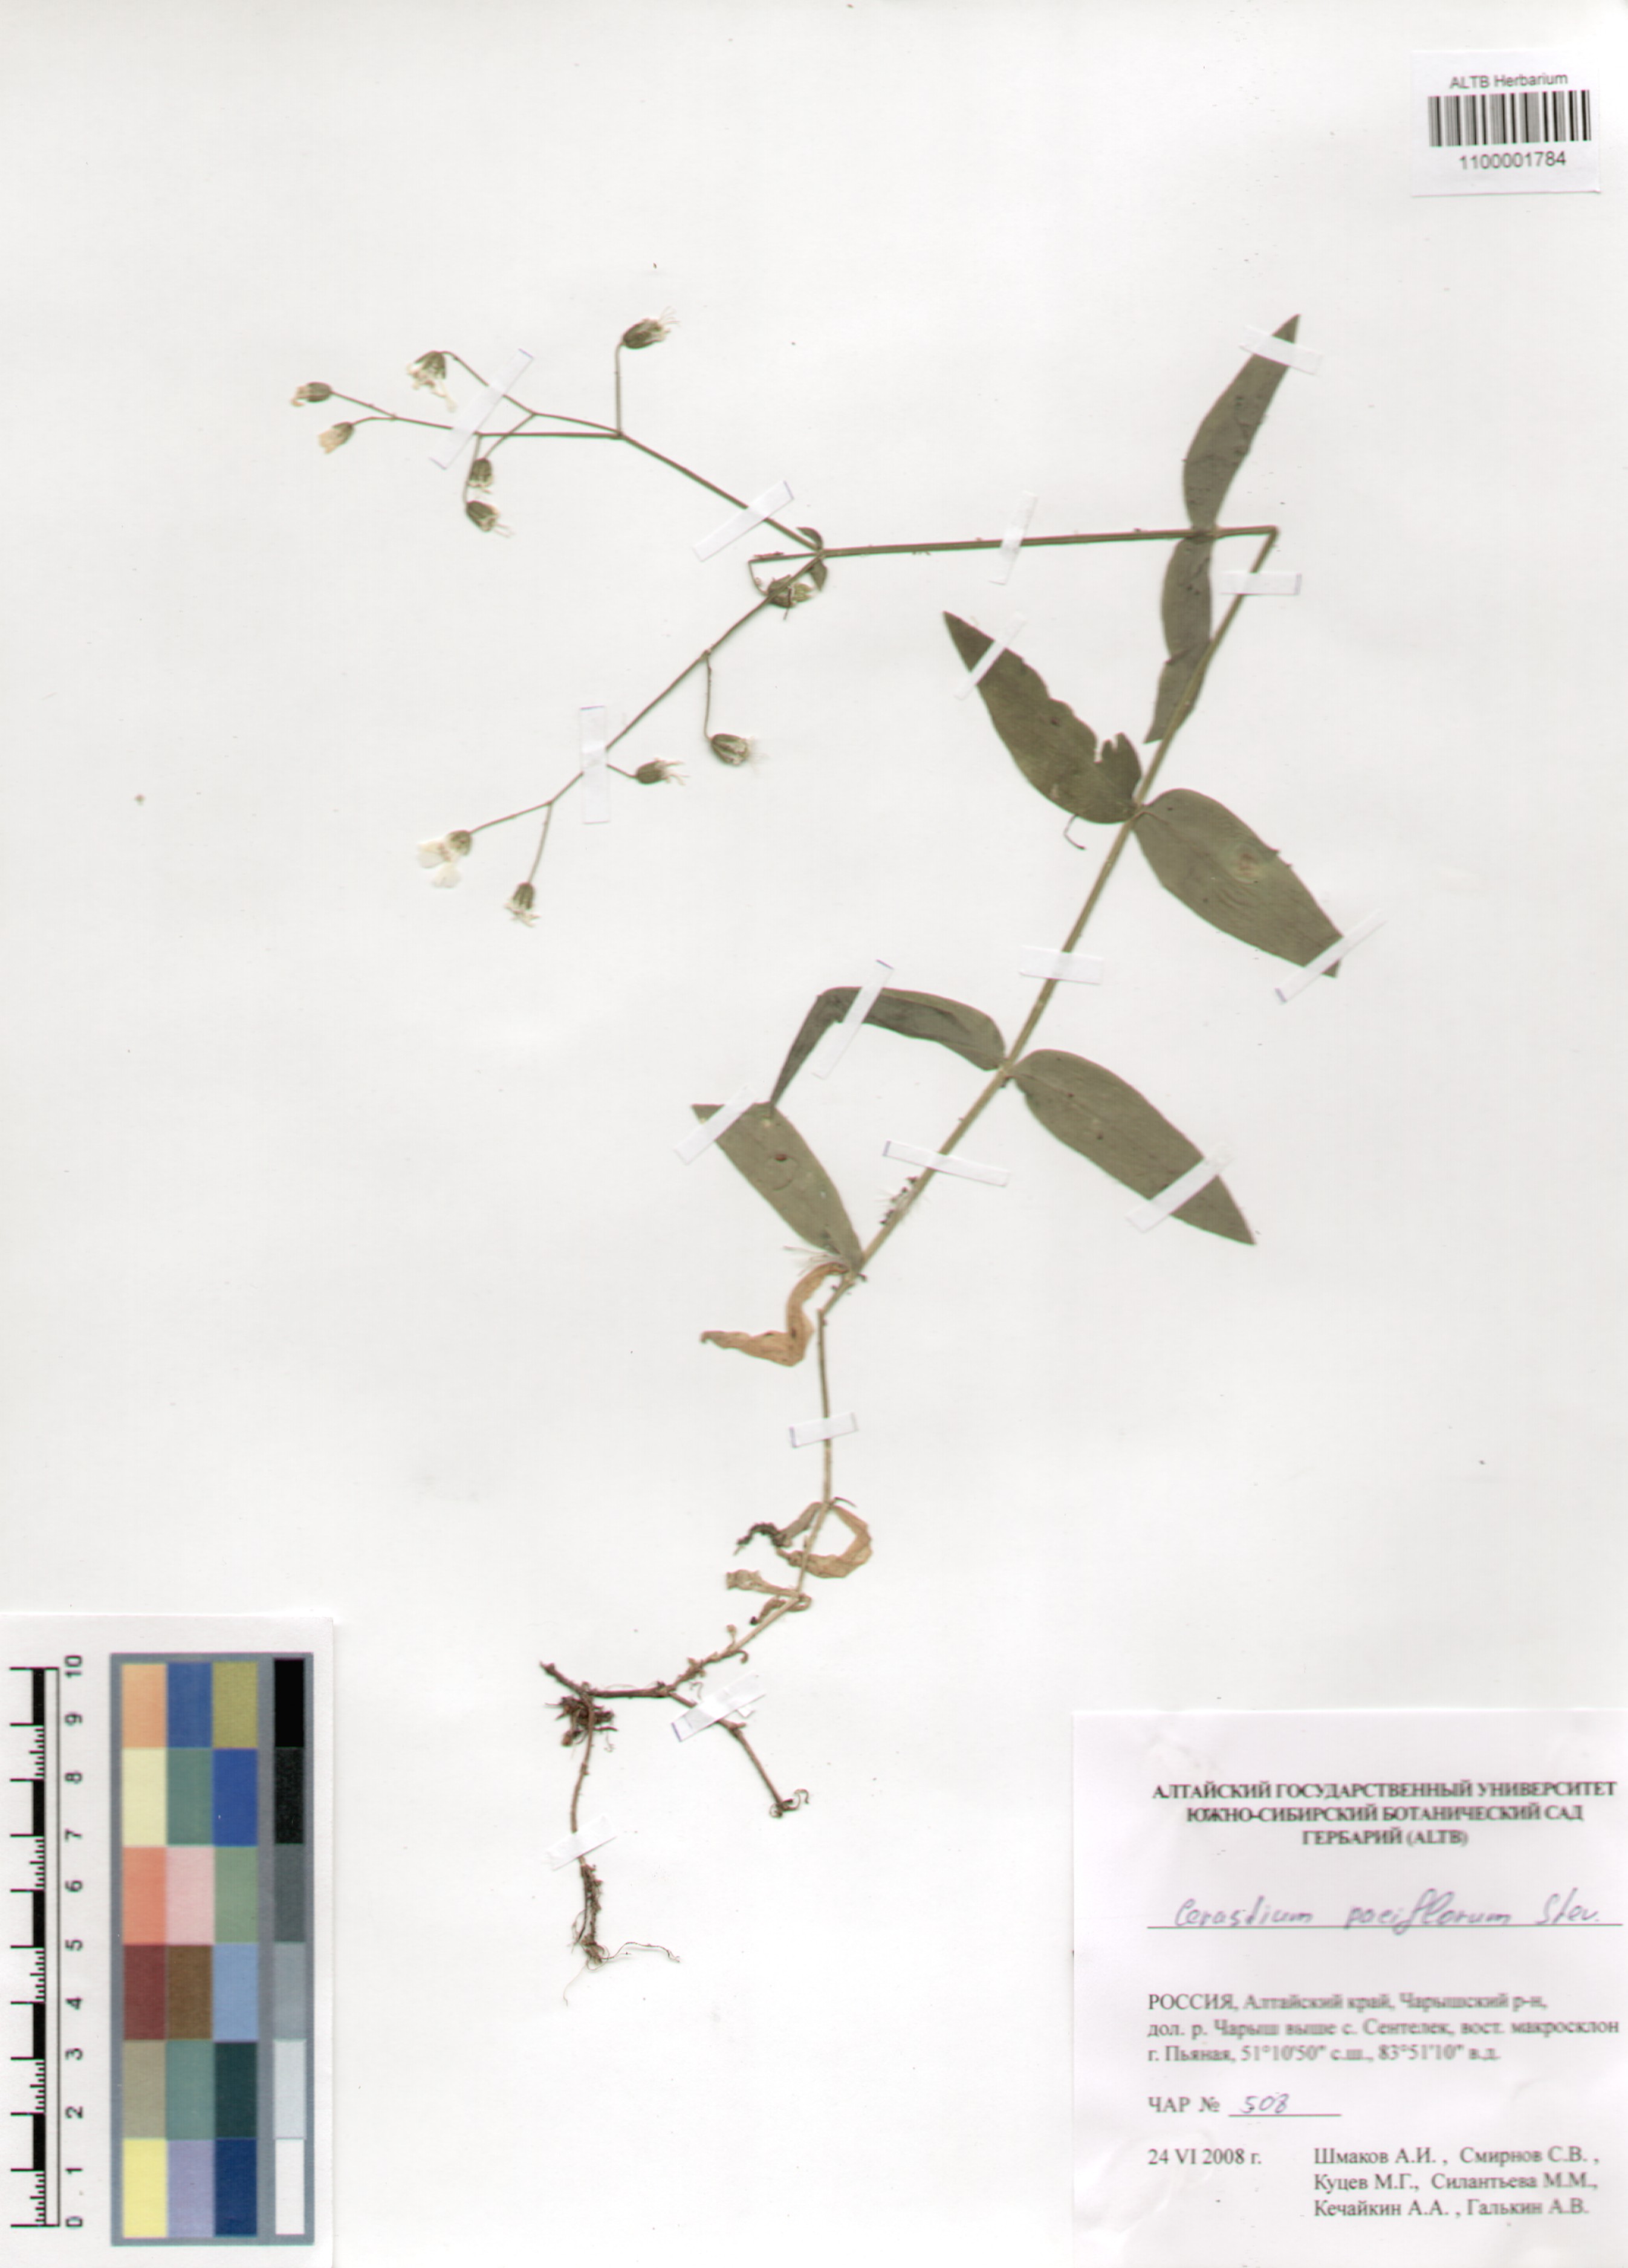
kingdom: Plantae
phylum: Tracheophyta
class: Magnoliopsida
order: Caryophyllales
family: Caryophyllaceae
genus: Cerastium
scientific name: Cerastium pauciflorum
